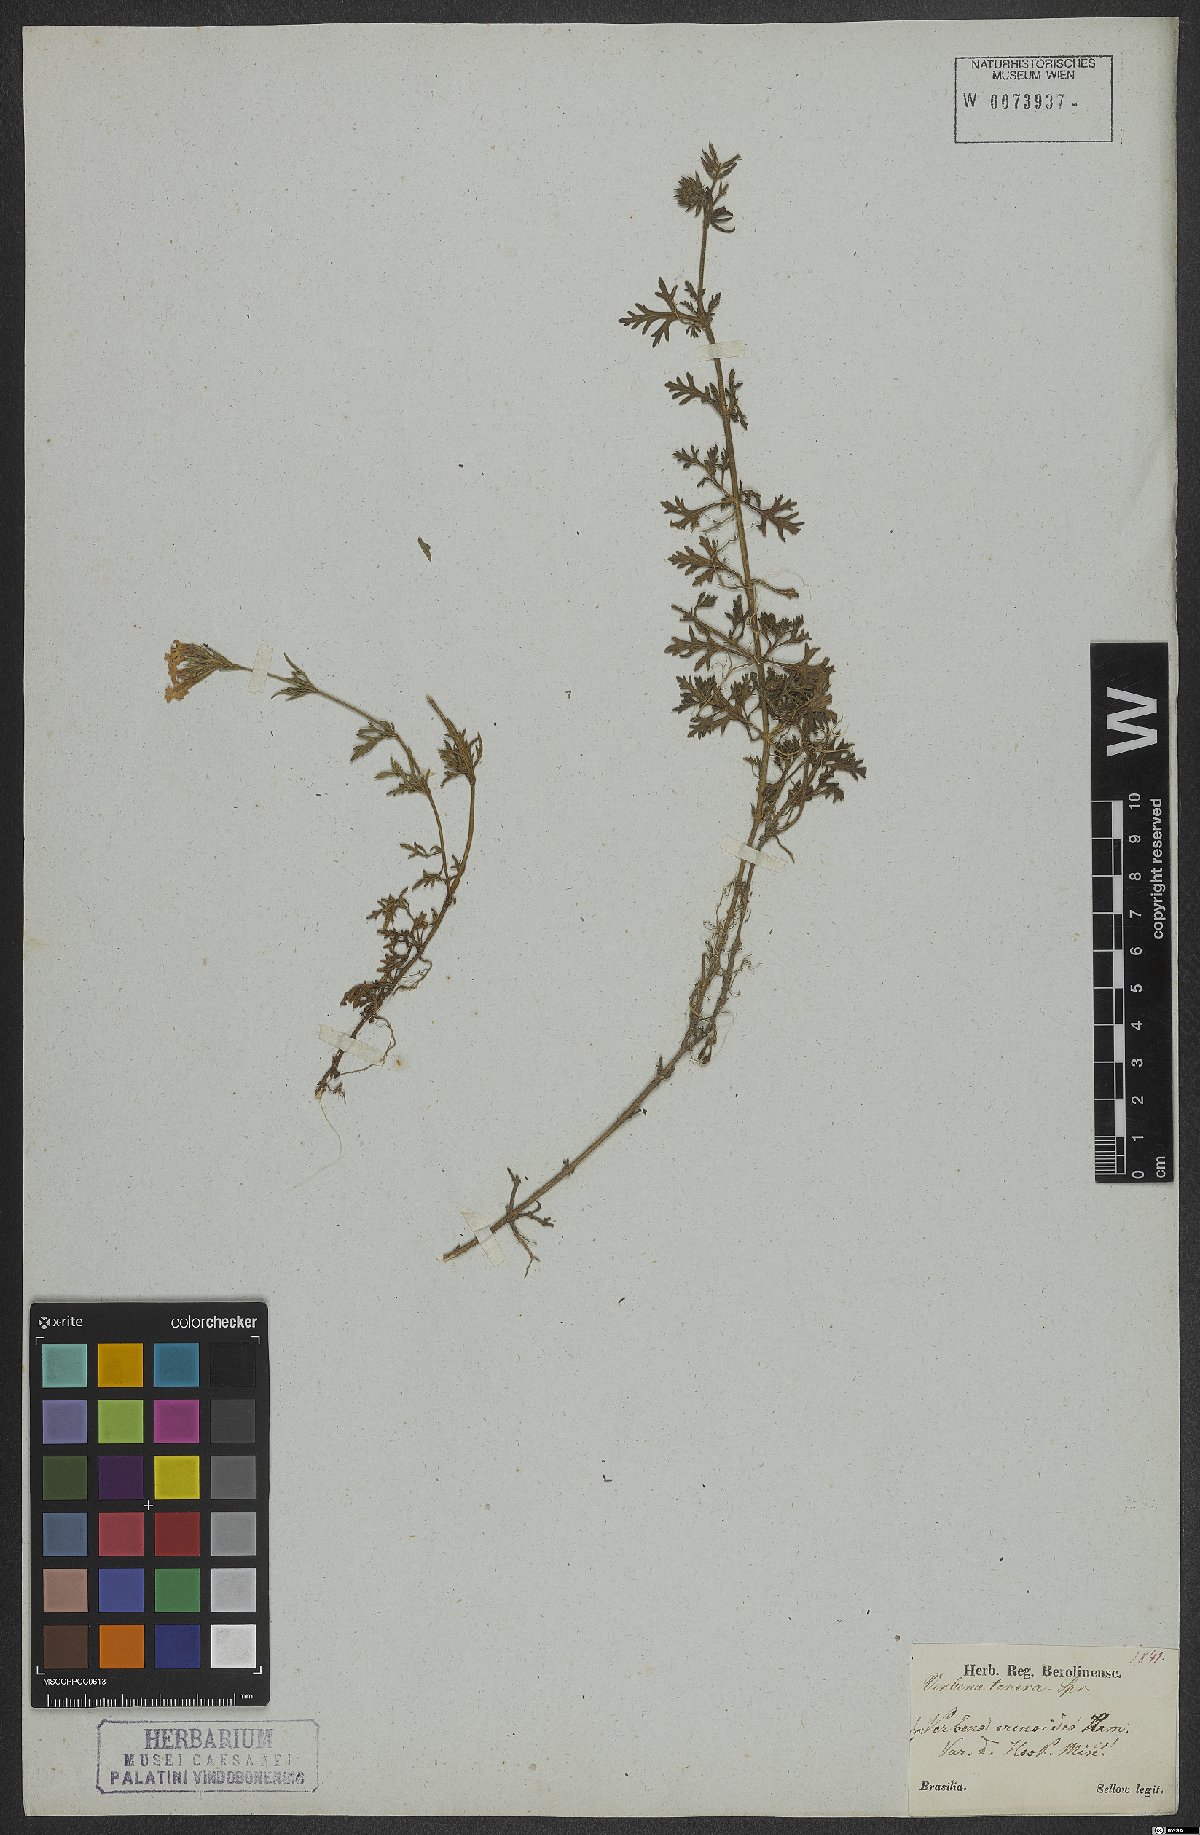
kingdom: Plantae
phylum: Tracheophyta
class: Magnoliopsida
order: Lamiales
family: Verbenaceae
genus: Verbena
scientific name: Verbena tenera
